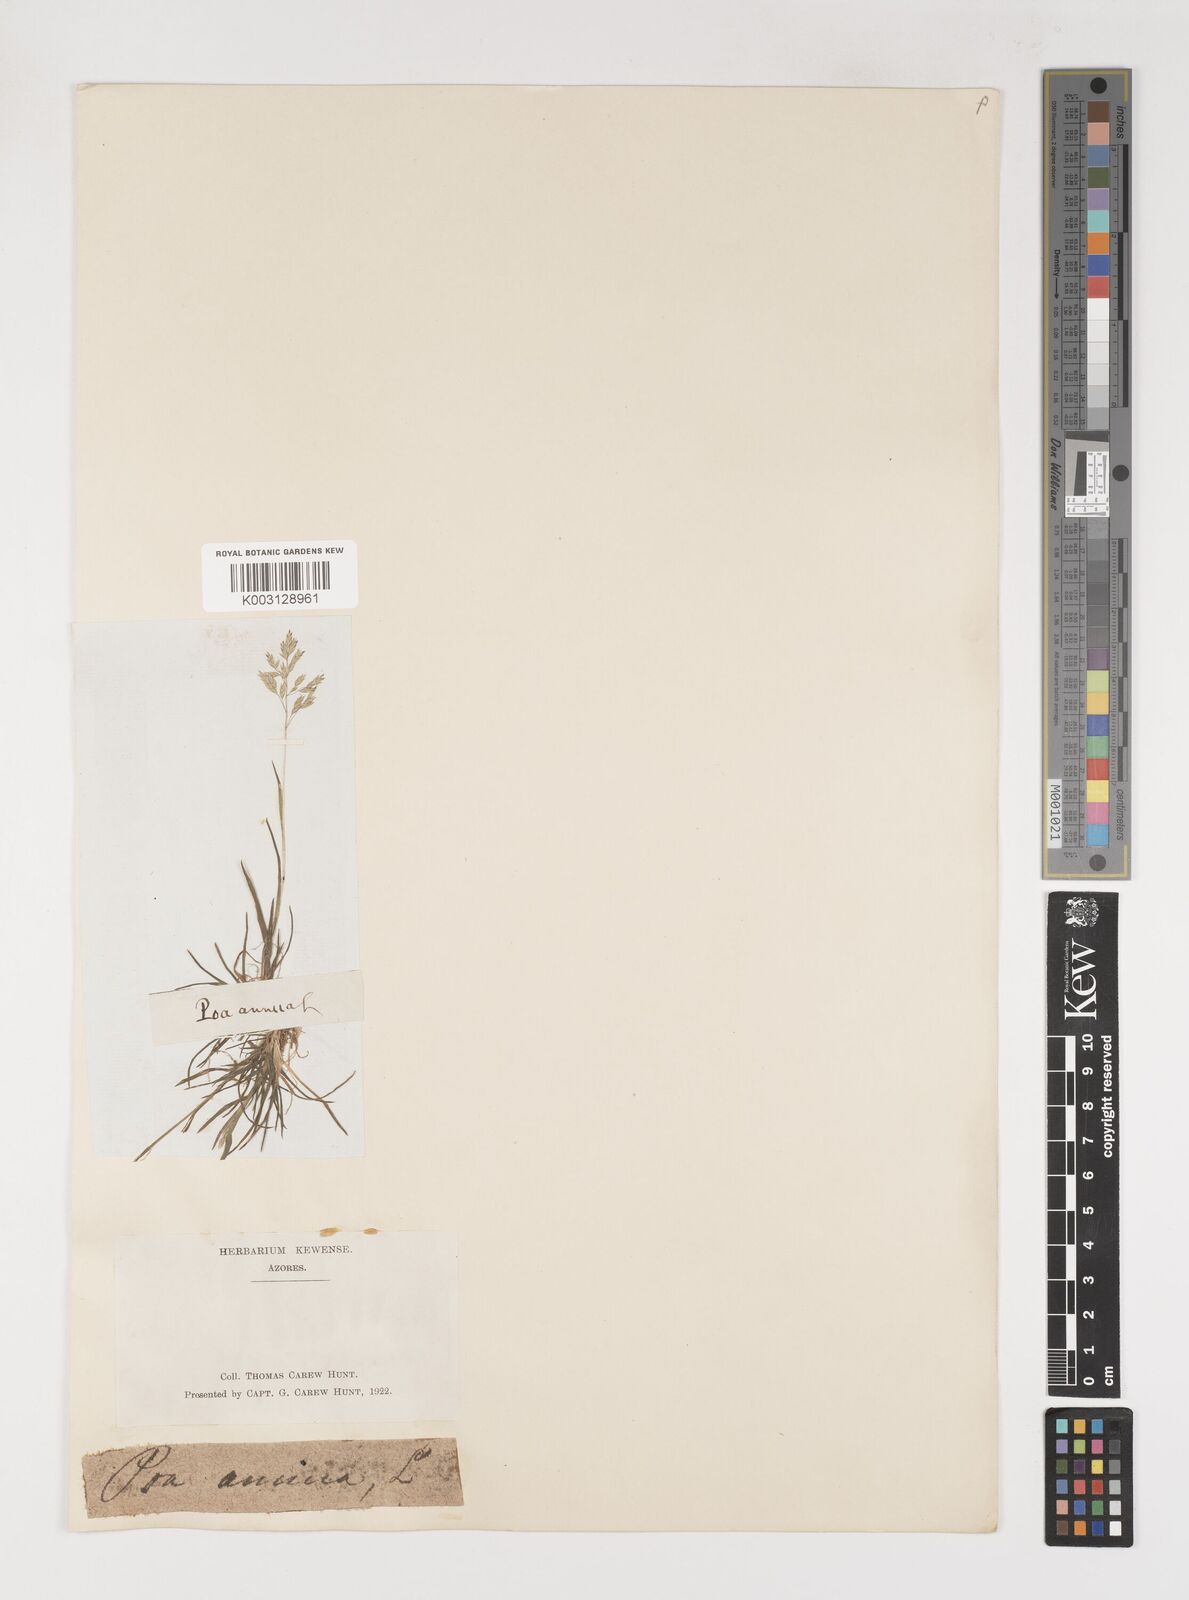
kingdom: Plantae
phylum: Tracheophyta
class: Liliopsida
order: Poales
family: Poaceae
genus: Poa
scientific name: Poa annua
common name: Annual bluegrass
